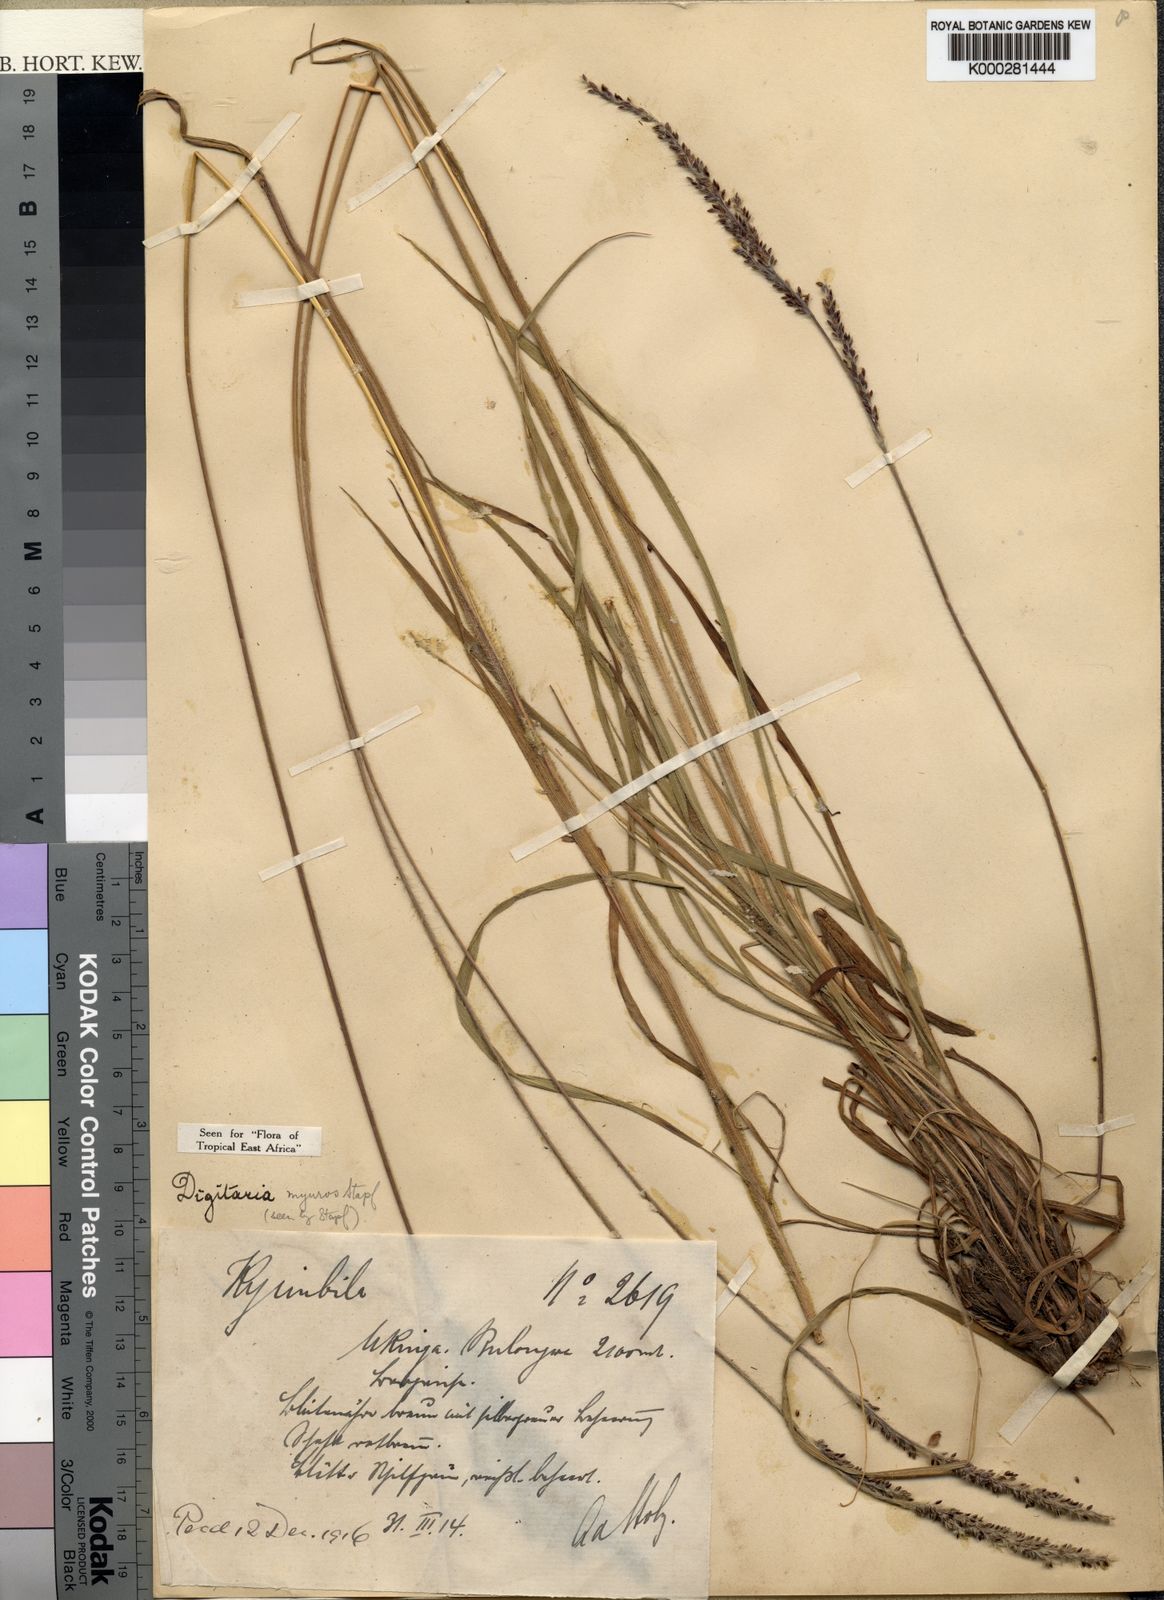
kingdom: Plantae
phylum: Tracheophyta
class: Liliopsida
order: Poales
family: Poaceae
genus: Digitaria
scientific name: Digitaria myurus
